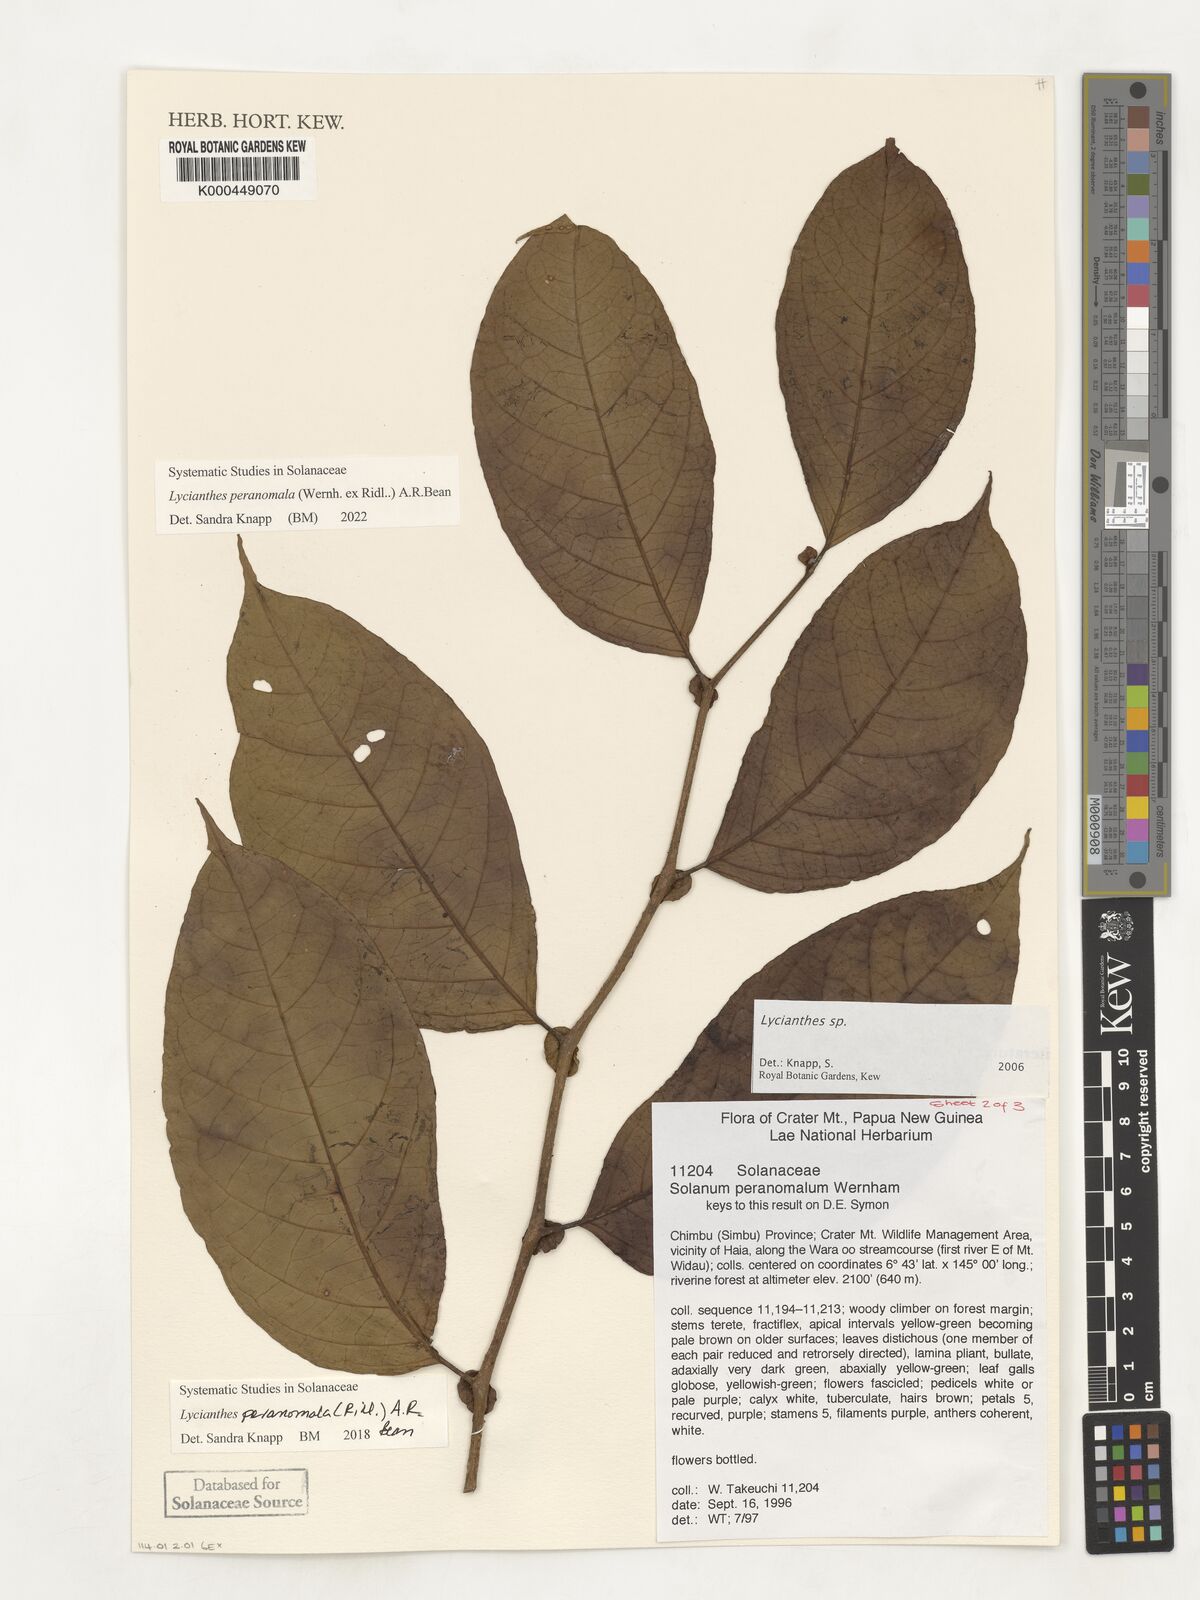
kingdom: Plantae
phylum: Tracheophyta
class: Magnoliopsida
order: Solanales
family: Solanaceae
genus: Lycianthes
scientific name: Lycianthes
